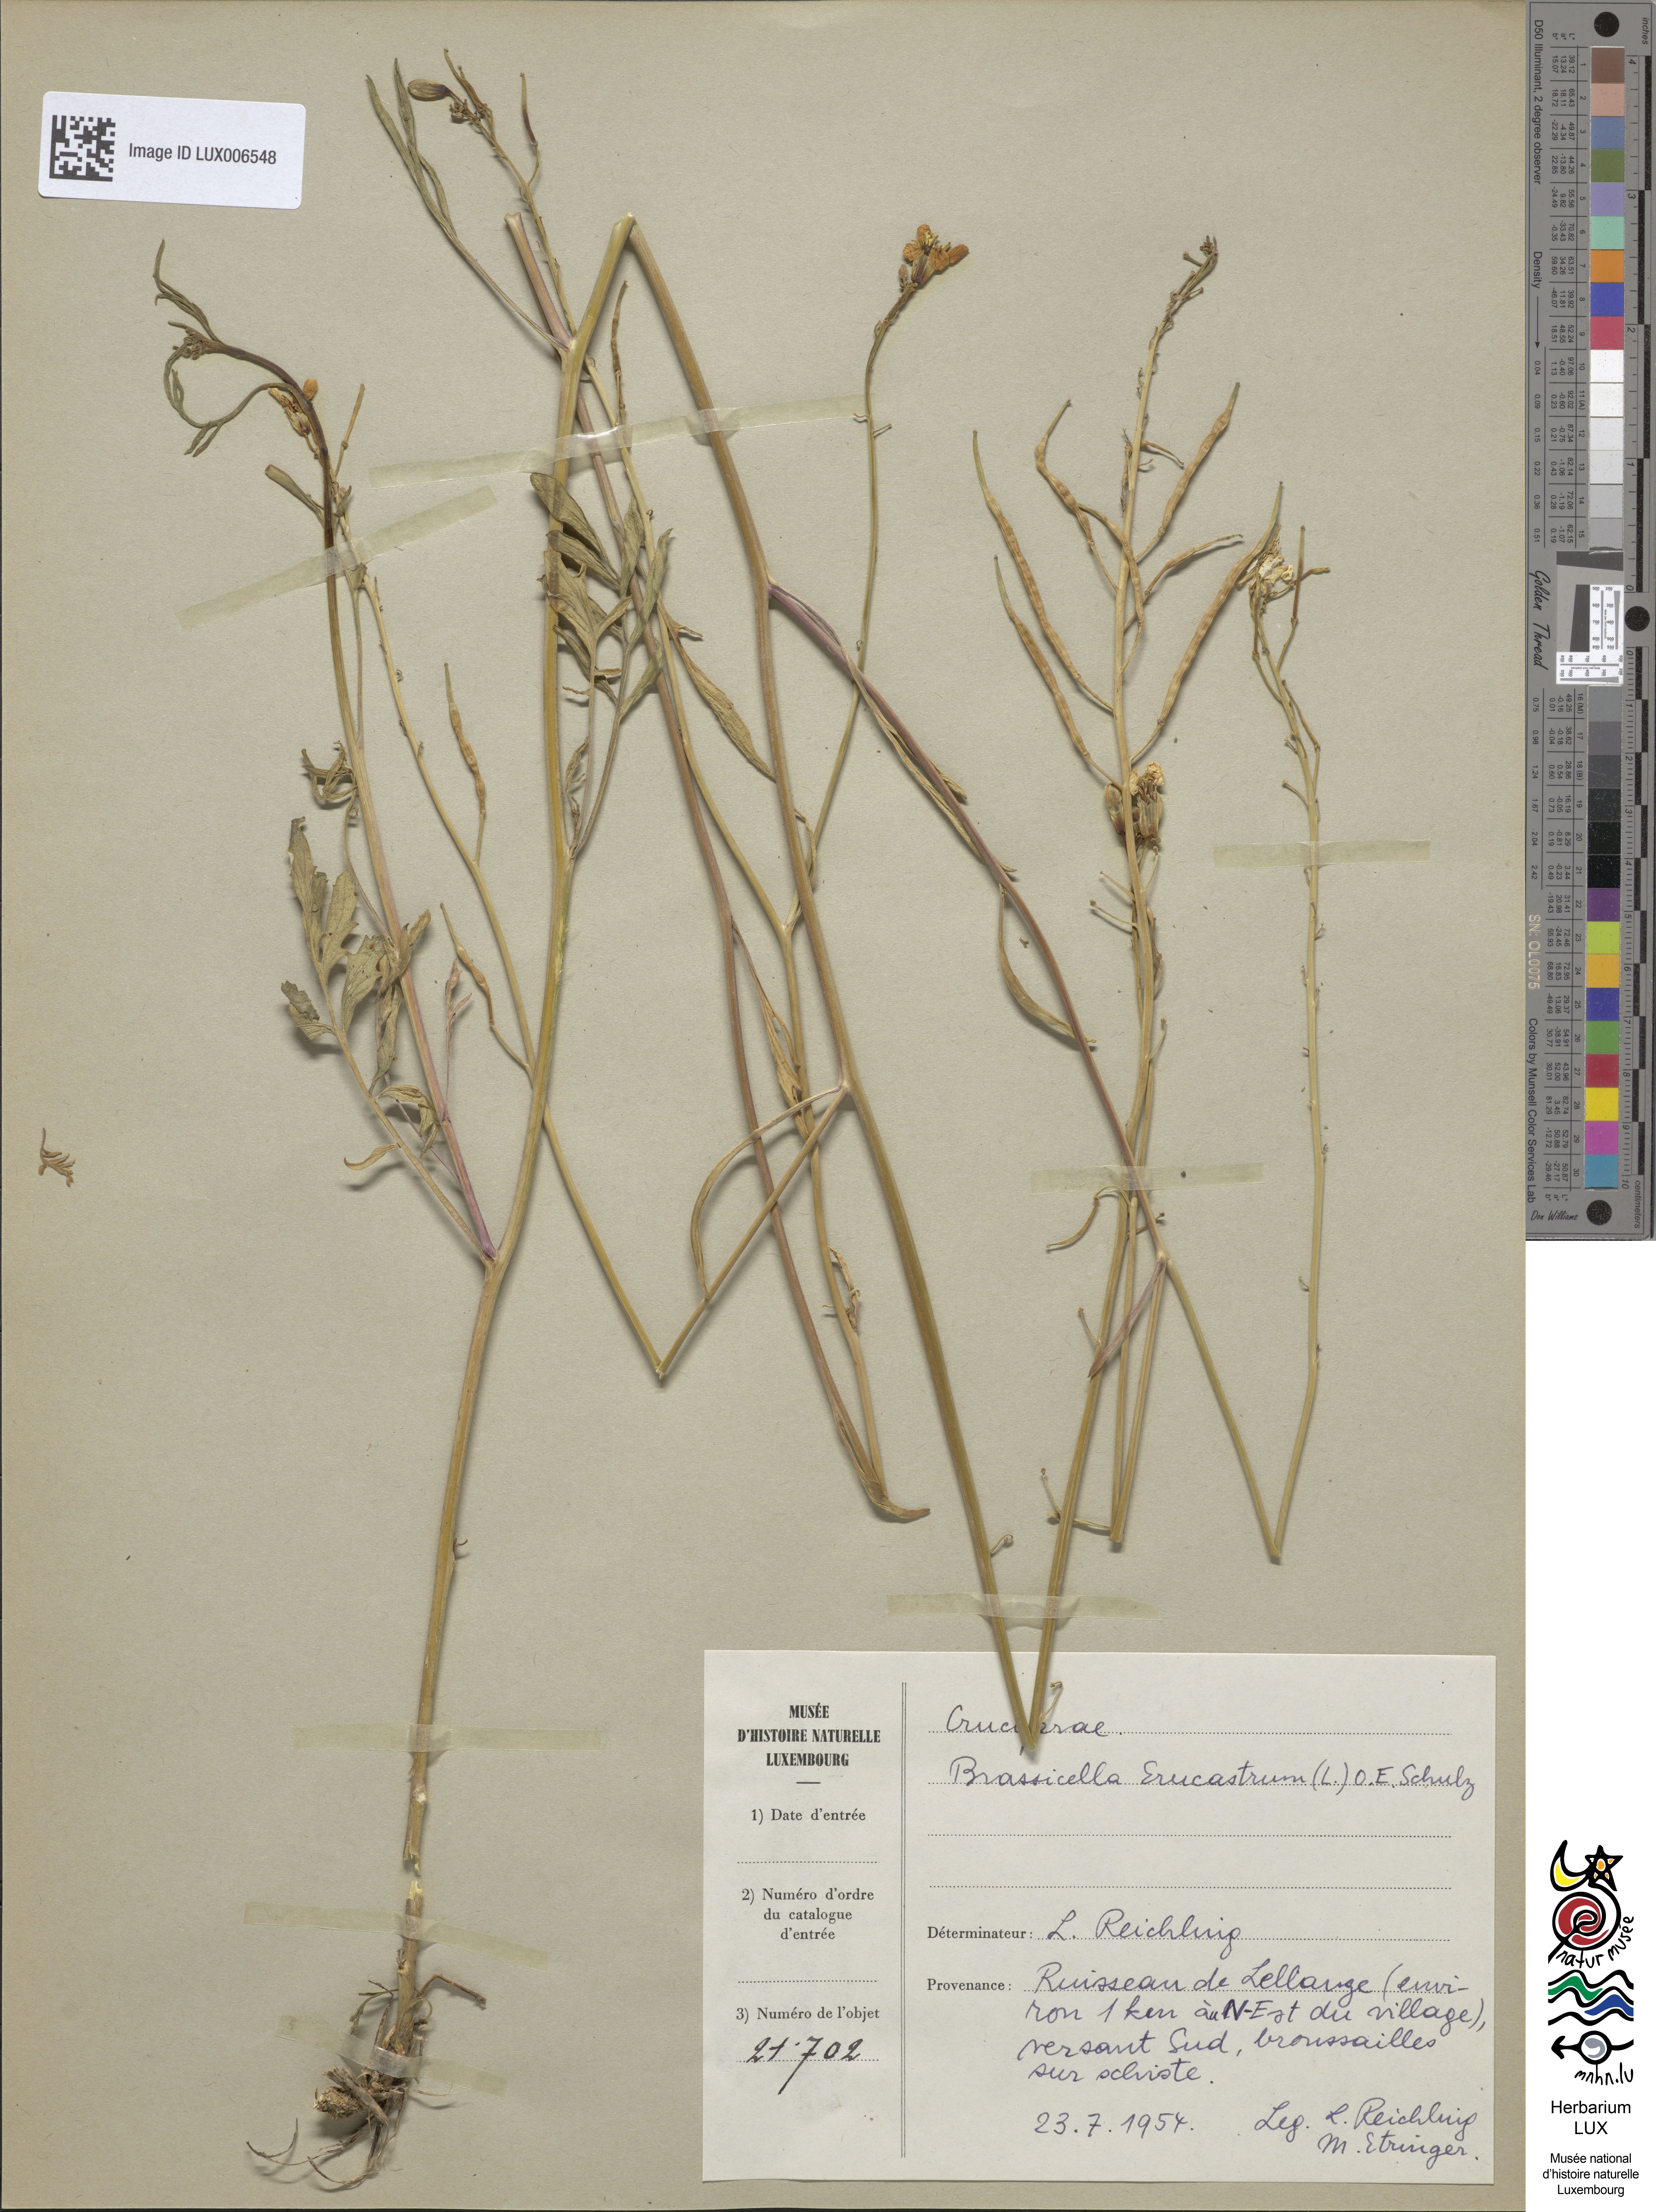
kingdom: Plantae
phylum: Tracheophyta
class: Magnoliopsida
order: Brassicales
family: Brassicaceae
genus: Erucastrum
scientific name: Erucastrum nasturtiifolium
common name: Watercress-leaf rocket
